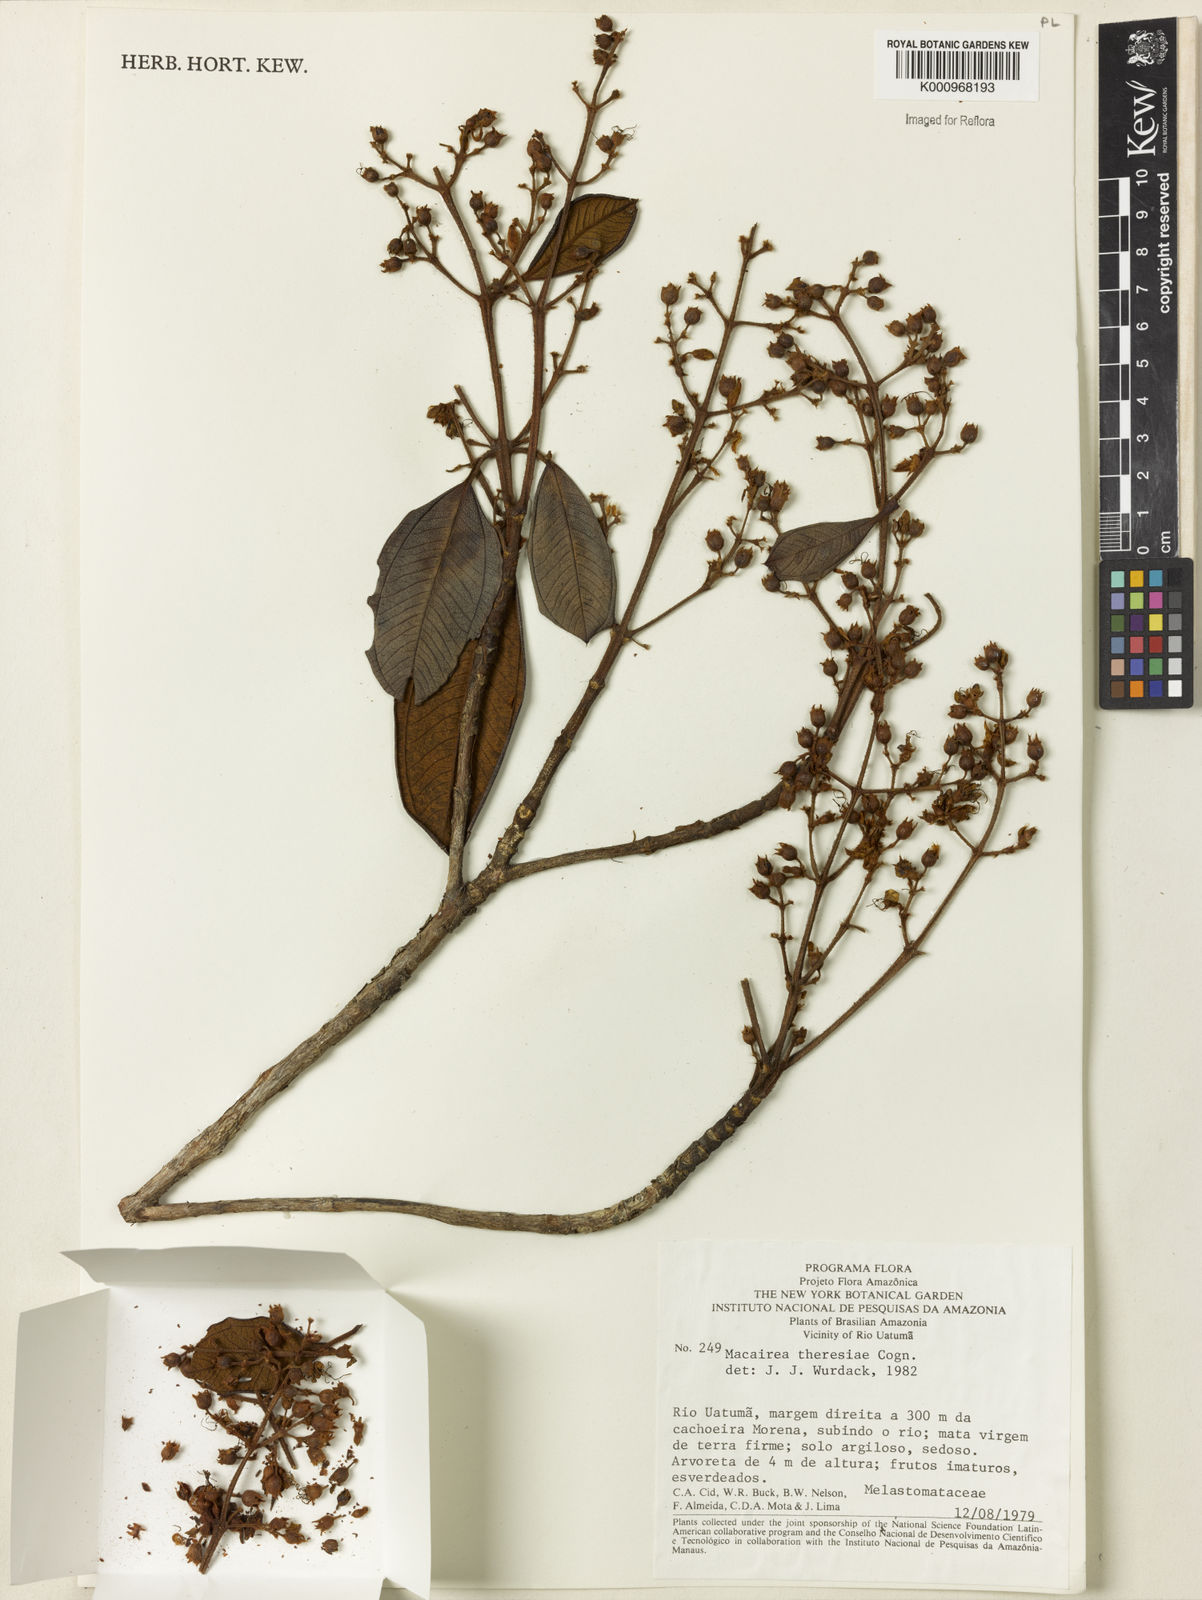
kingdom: Plantae
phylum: Tracheophyta
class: Magnoliopsida
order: Myrtales
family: Melastomataceae
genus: Macairea
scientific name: Macairea theresiae
